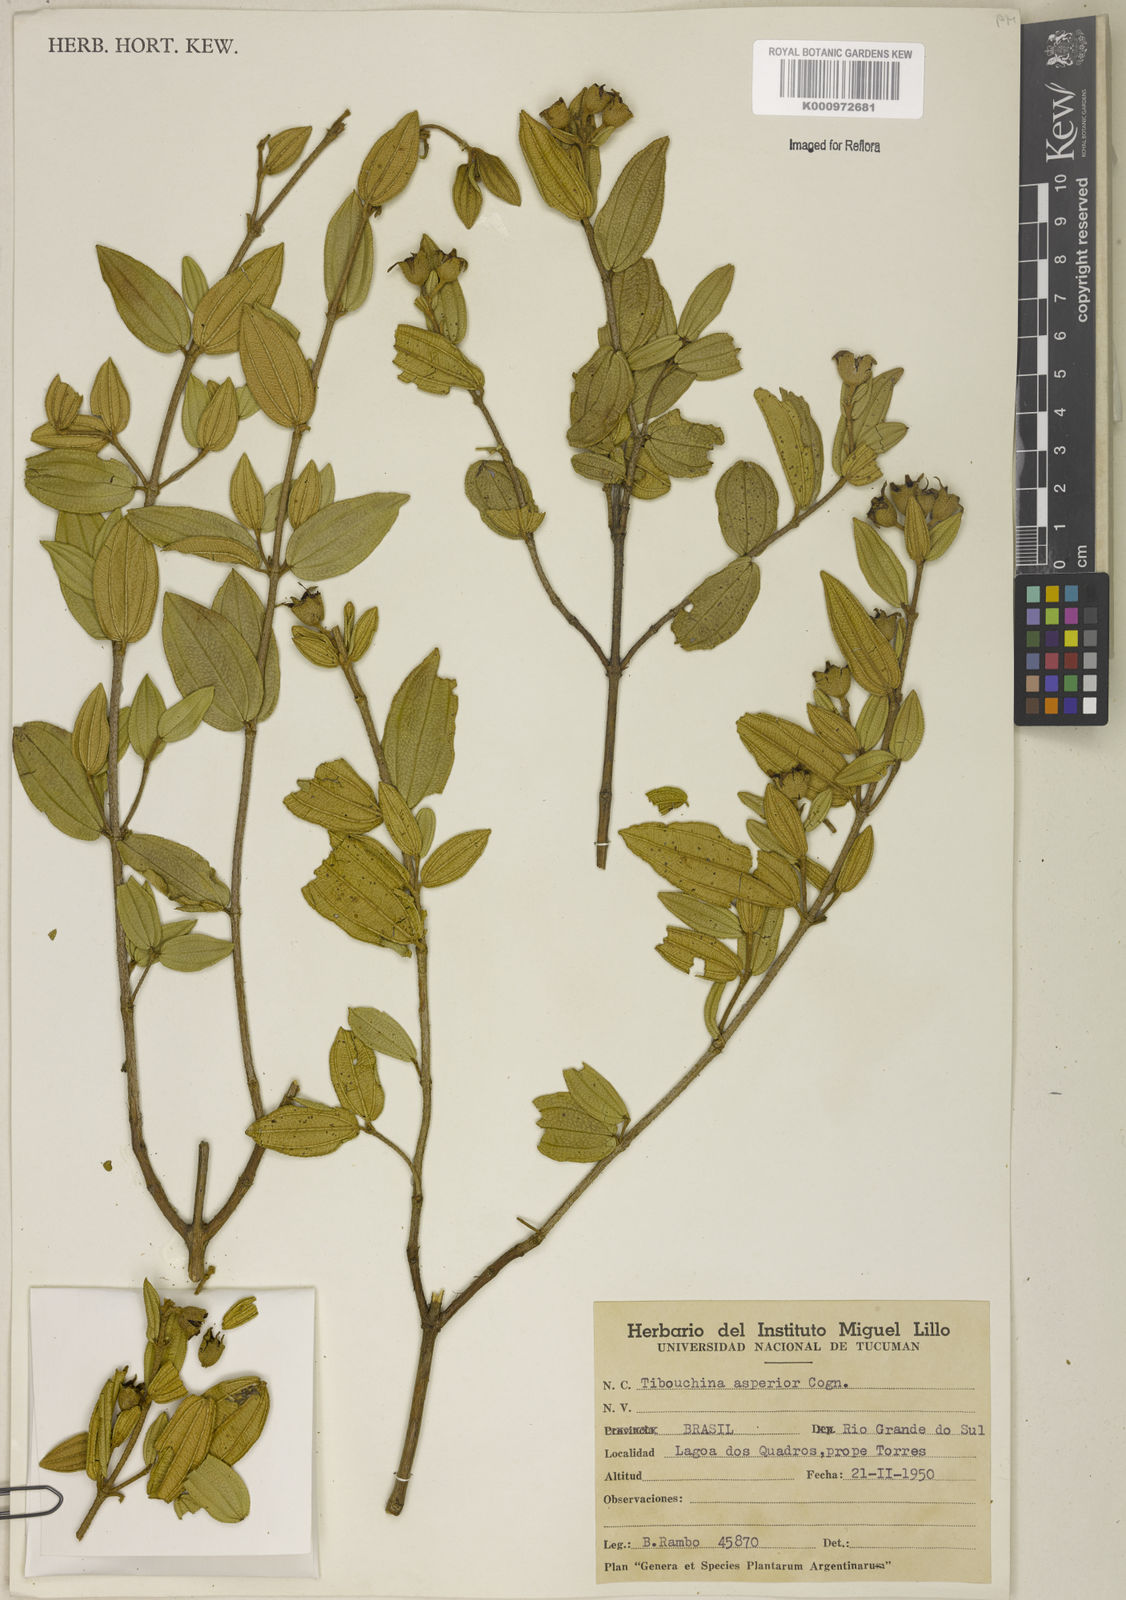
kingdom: Plantae
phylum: Tracheophyta
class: Magnoliopsida
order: Myrtales
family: Melastomataceae
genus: Pleroma
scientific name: Pleroma asperius
